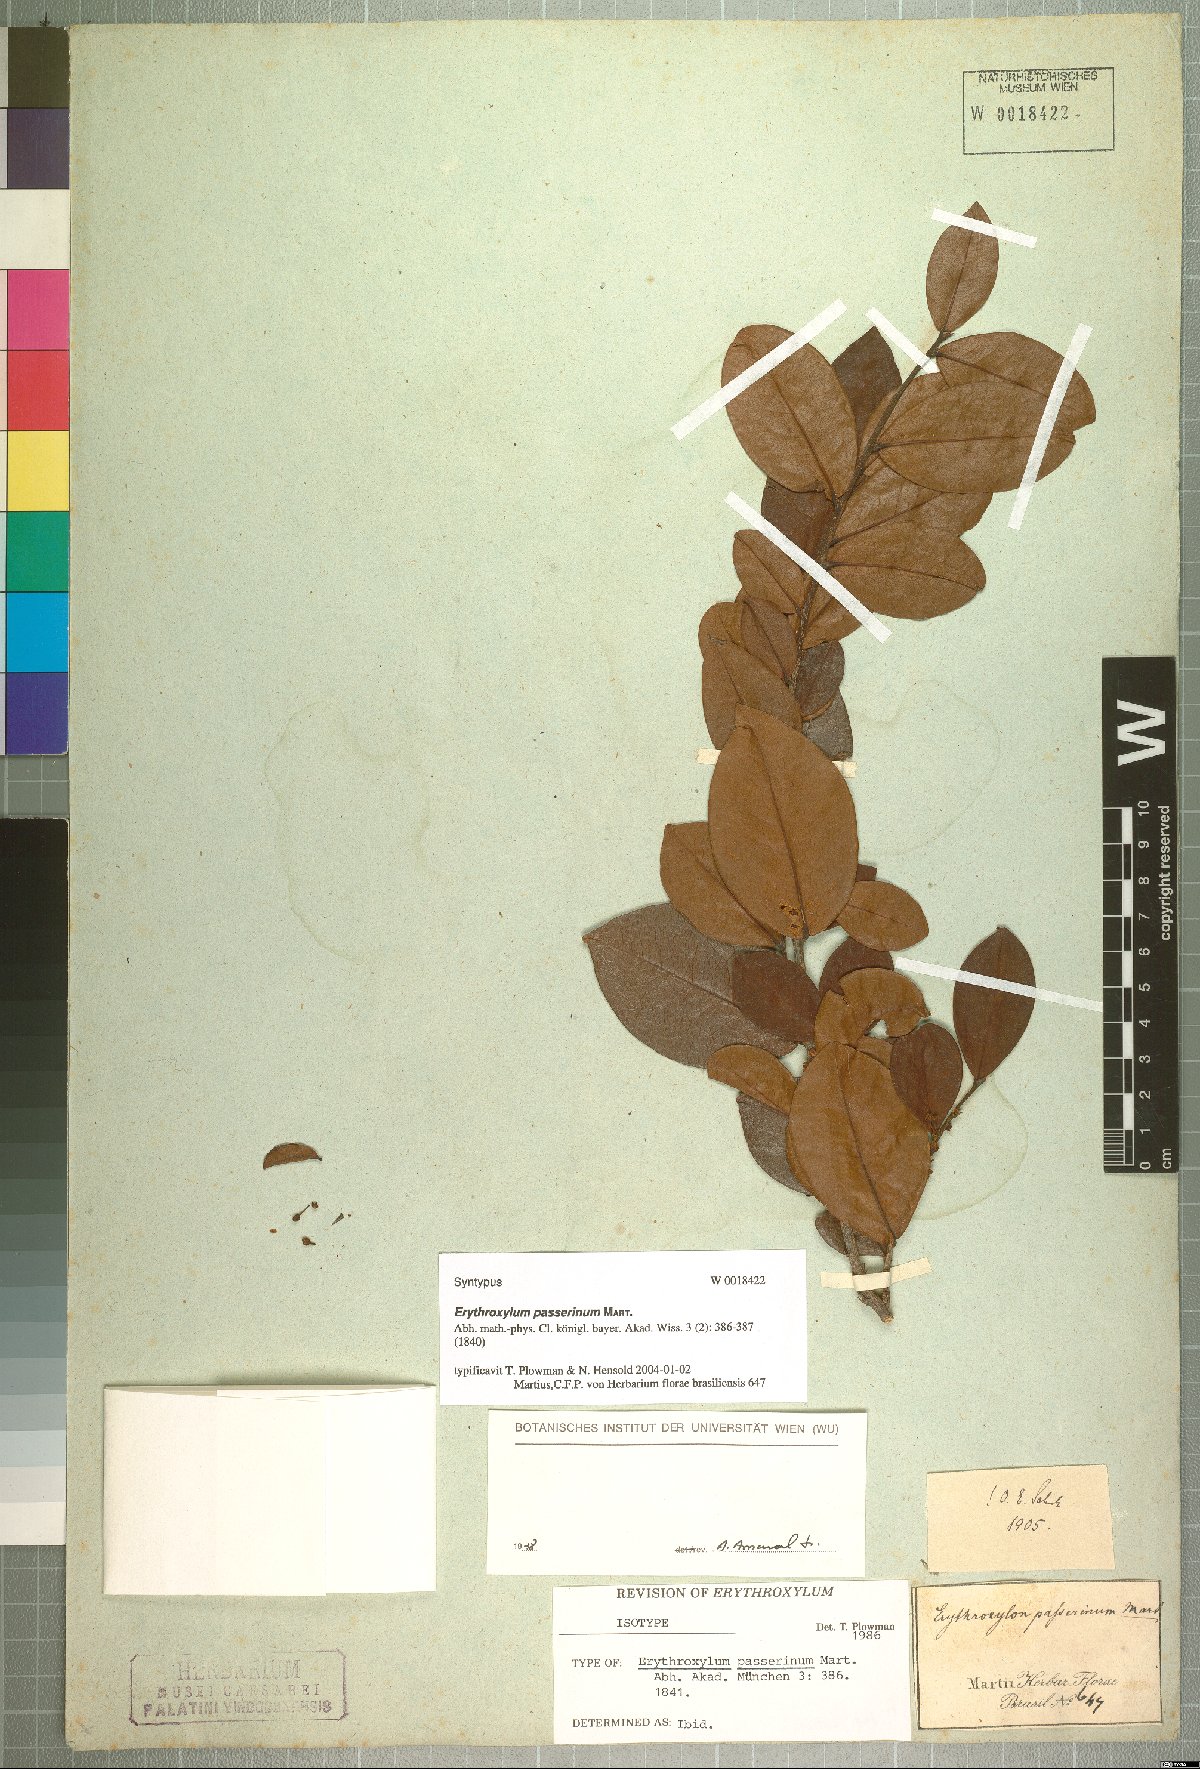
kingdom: Plantae
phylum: Tracheophyta
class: Magnoliopsida
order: Malpighiales
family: Erythroxylaceae
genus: Erythroxylum
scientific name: Erythroxylum passerinum
